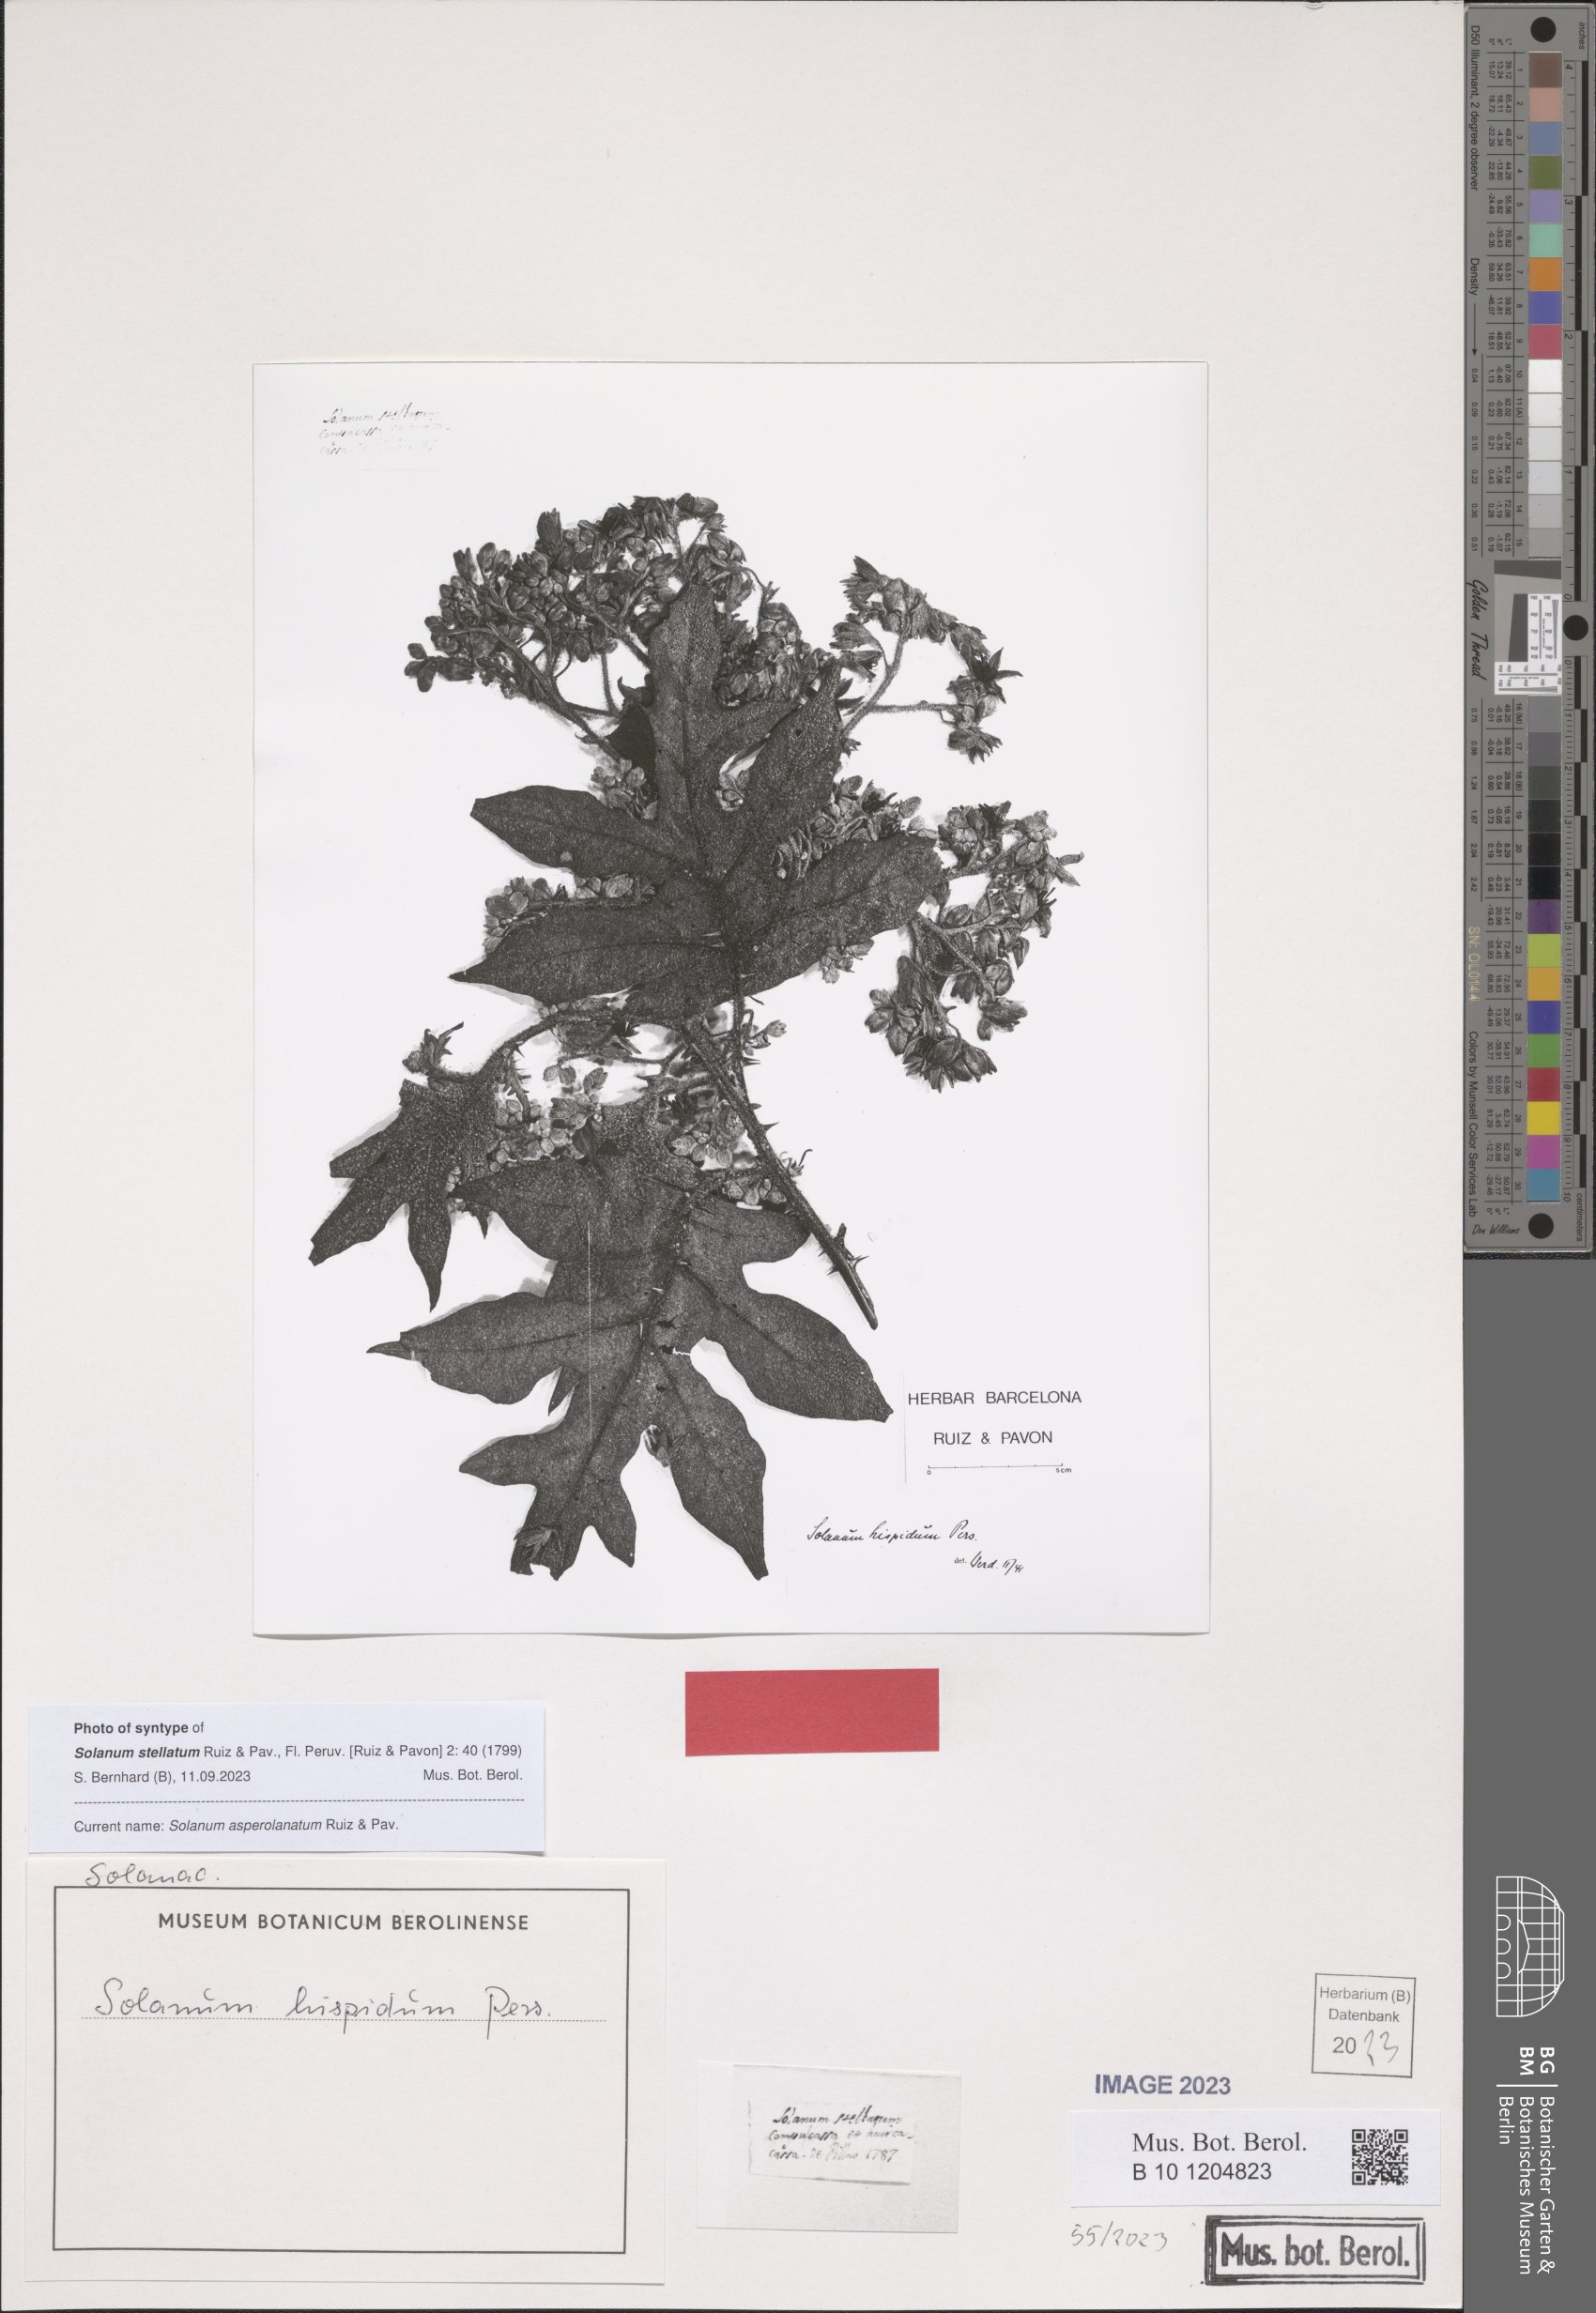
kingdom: Plantae
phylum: Tracheophyta
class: Magnoliopsida
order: Solanales
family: Solanaceae
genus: Solanum
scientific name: Solanum asperolanatum
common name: Devil's-fig
